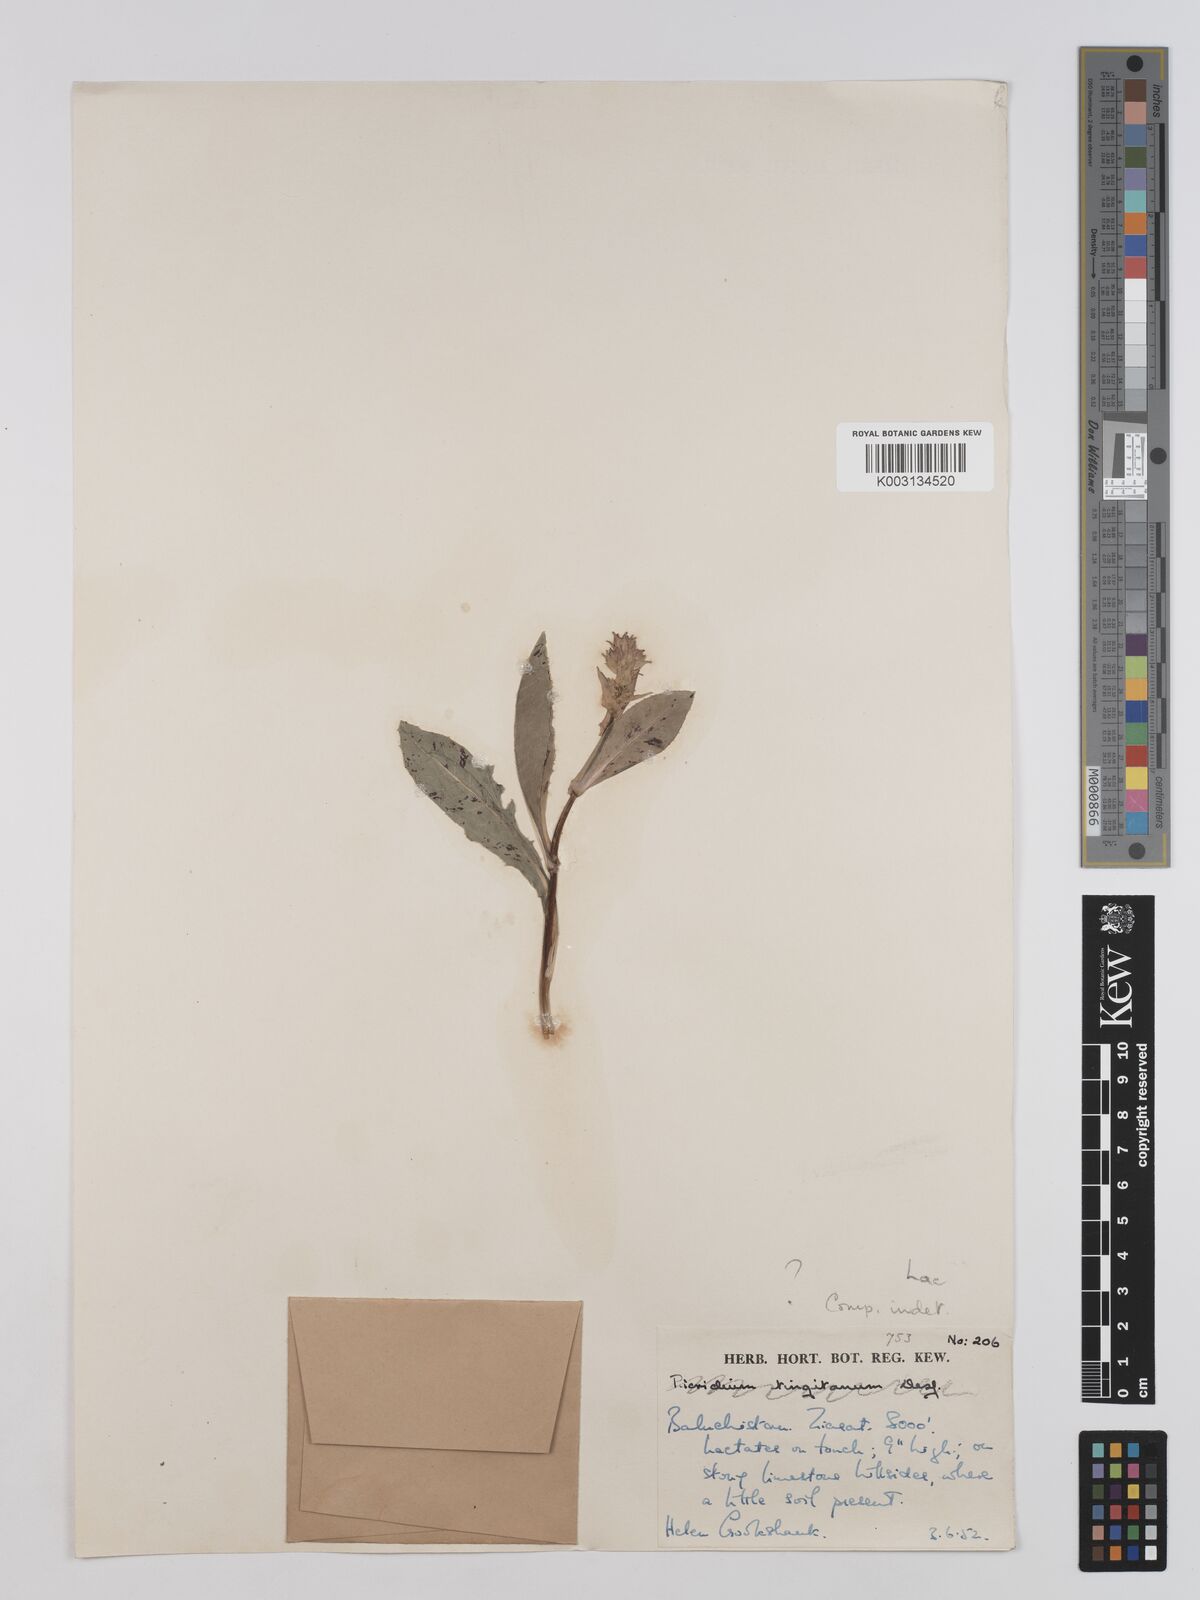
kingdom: Plantae
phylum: Tracheophyta
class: Magnoliopsida
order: Asterales
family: Asteraceae
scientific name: Asteraceae
